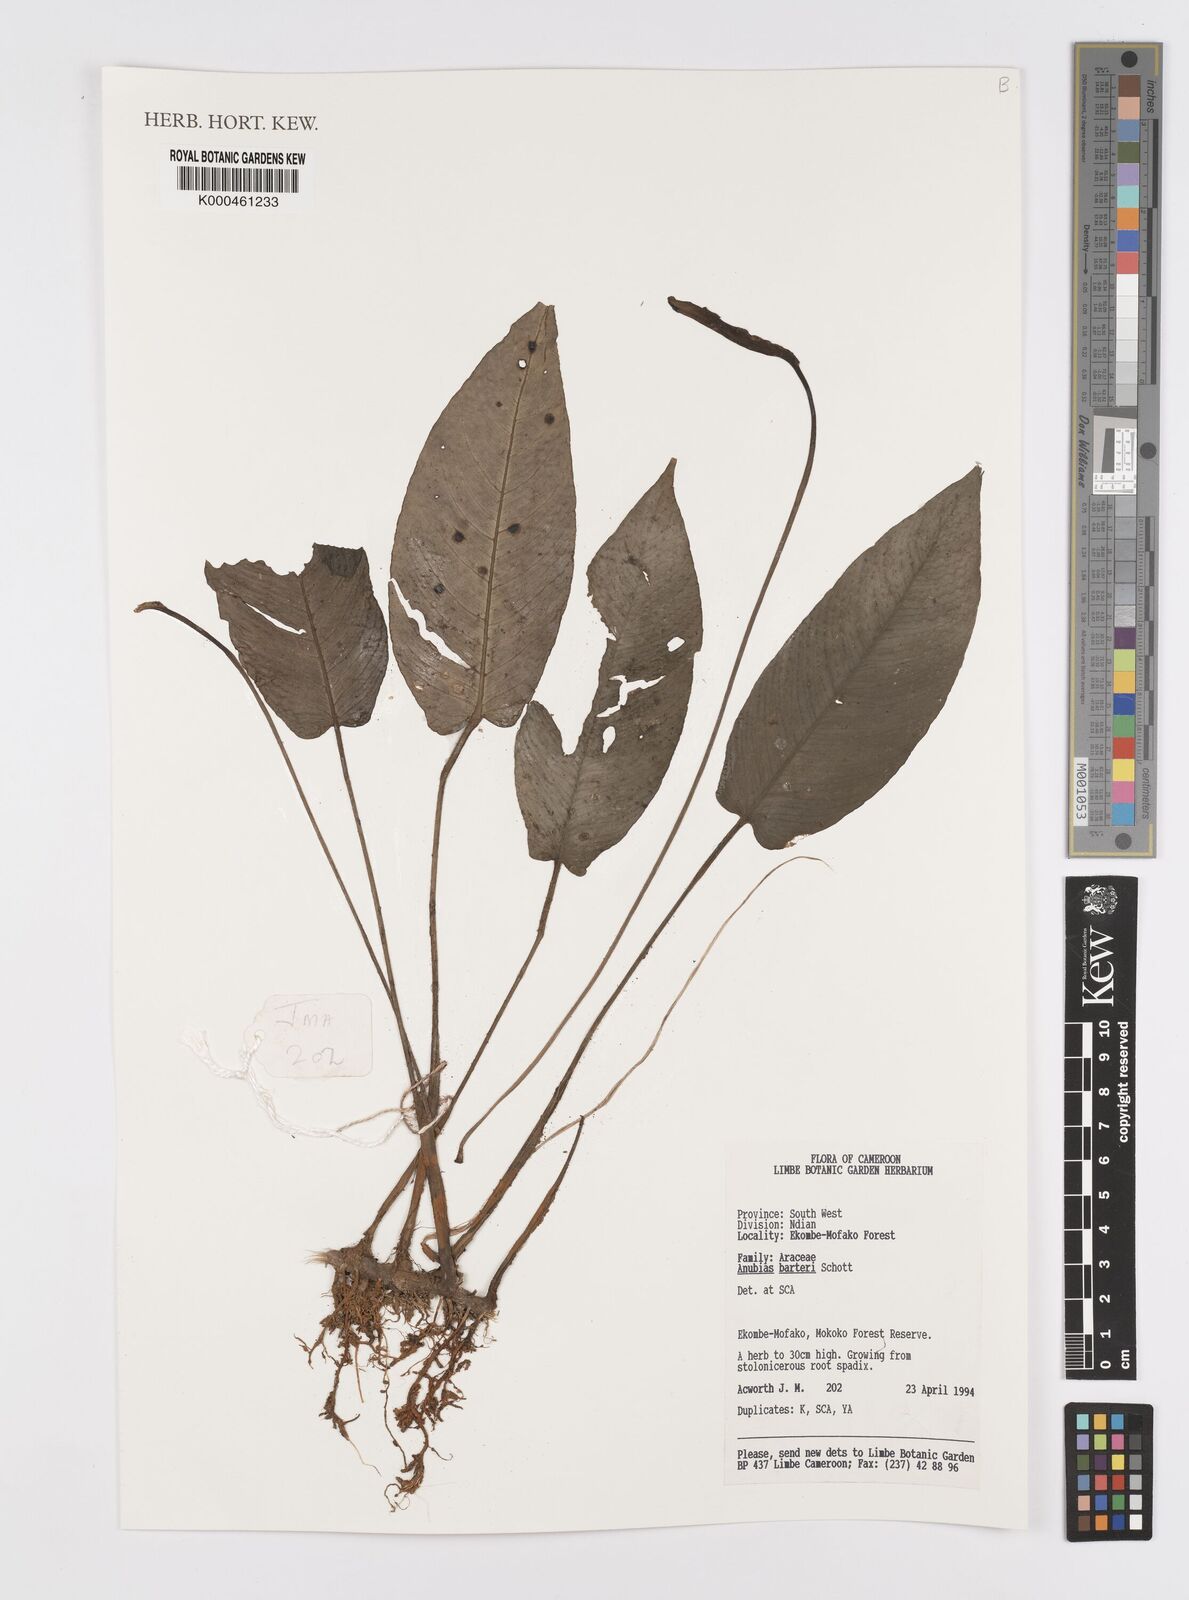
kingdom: Plantae
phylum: Tracheophyta
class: Liliopsida
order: Alismatales
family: Araceae
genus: Anubias
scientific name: Anubias barteri
